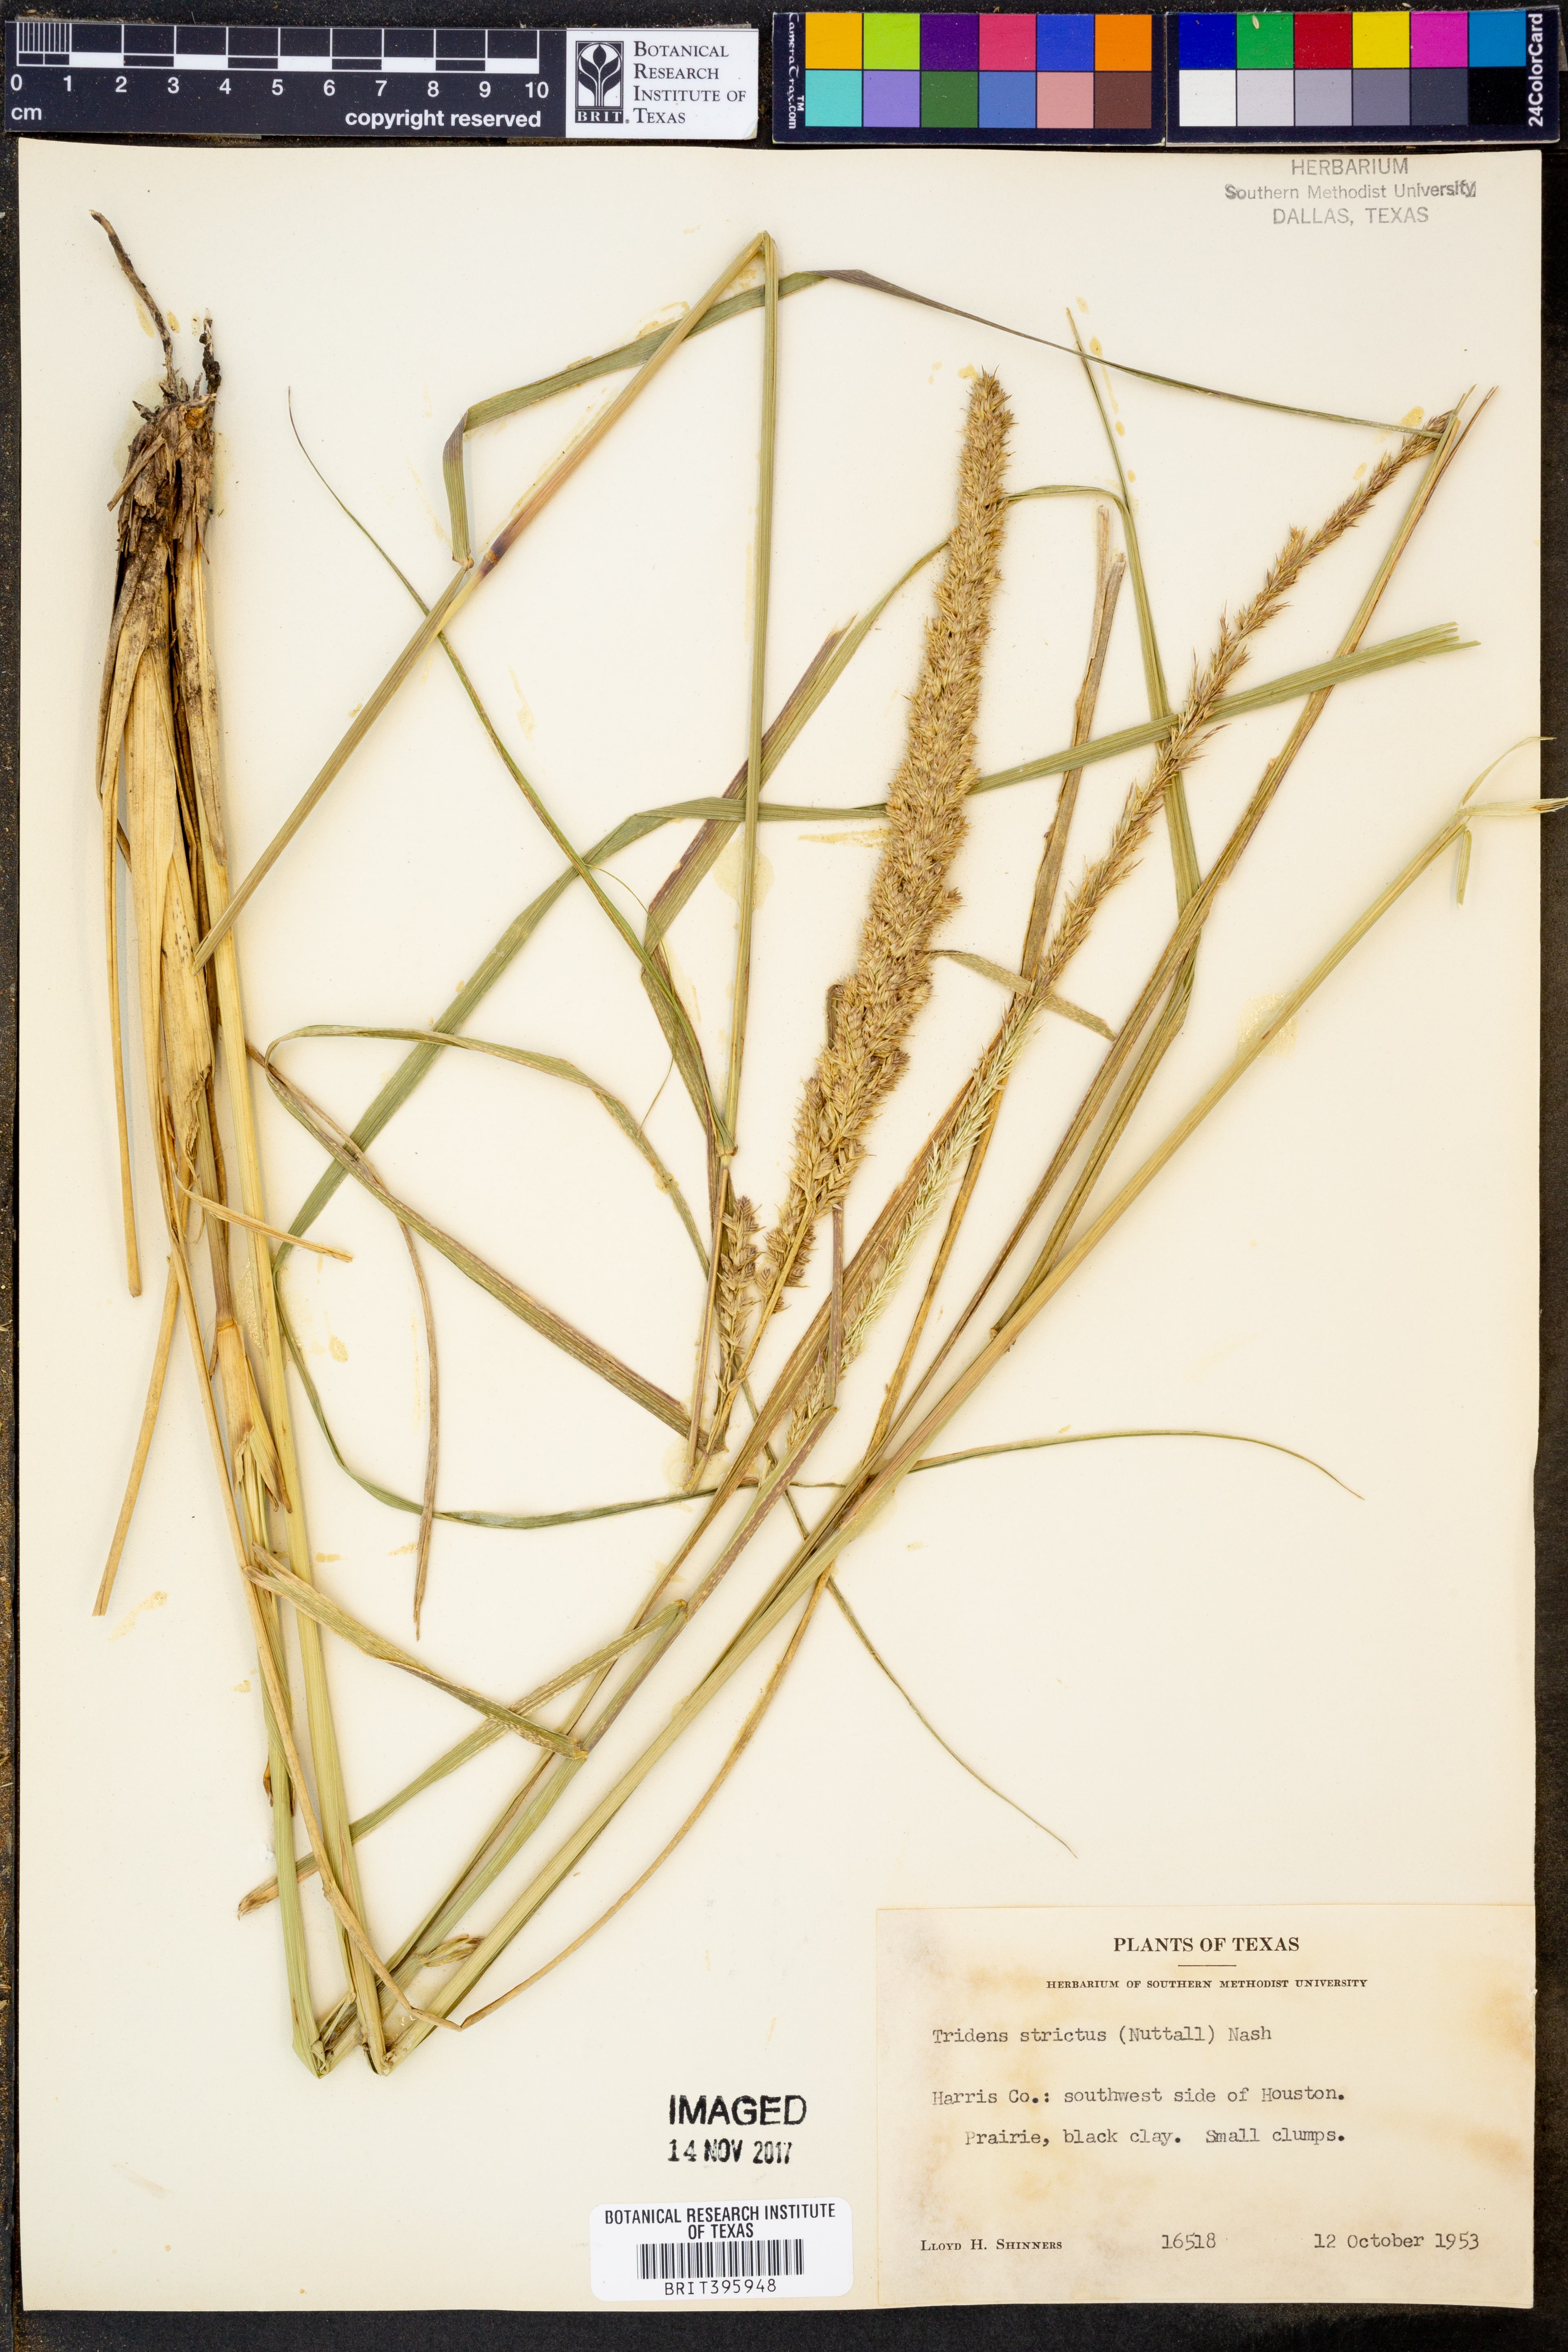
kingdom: Plantae
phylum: Tracheophyta
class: Liliopsida
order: Poales
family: Poaceae
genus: Tridens
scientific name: Tridens strictus
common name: Long-spike tridens
